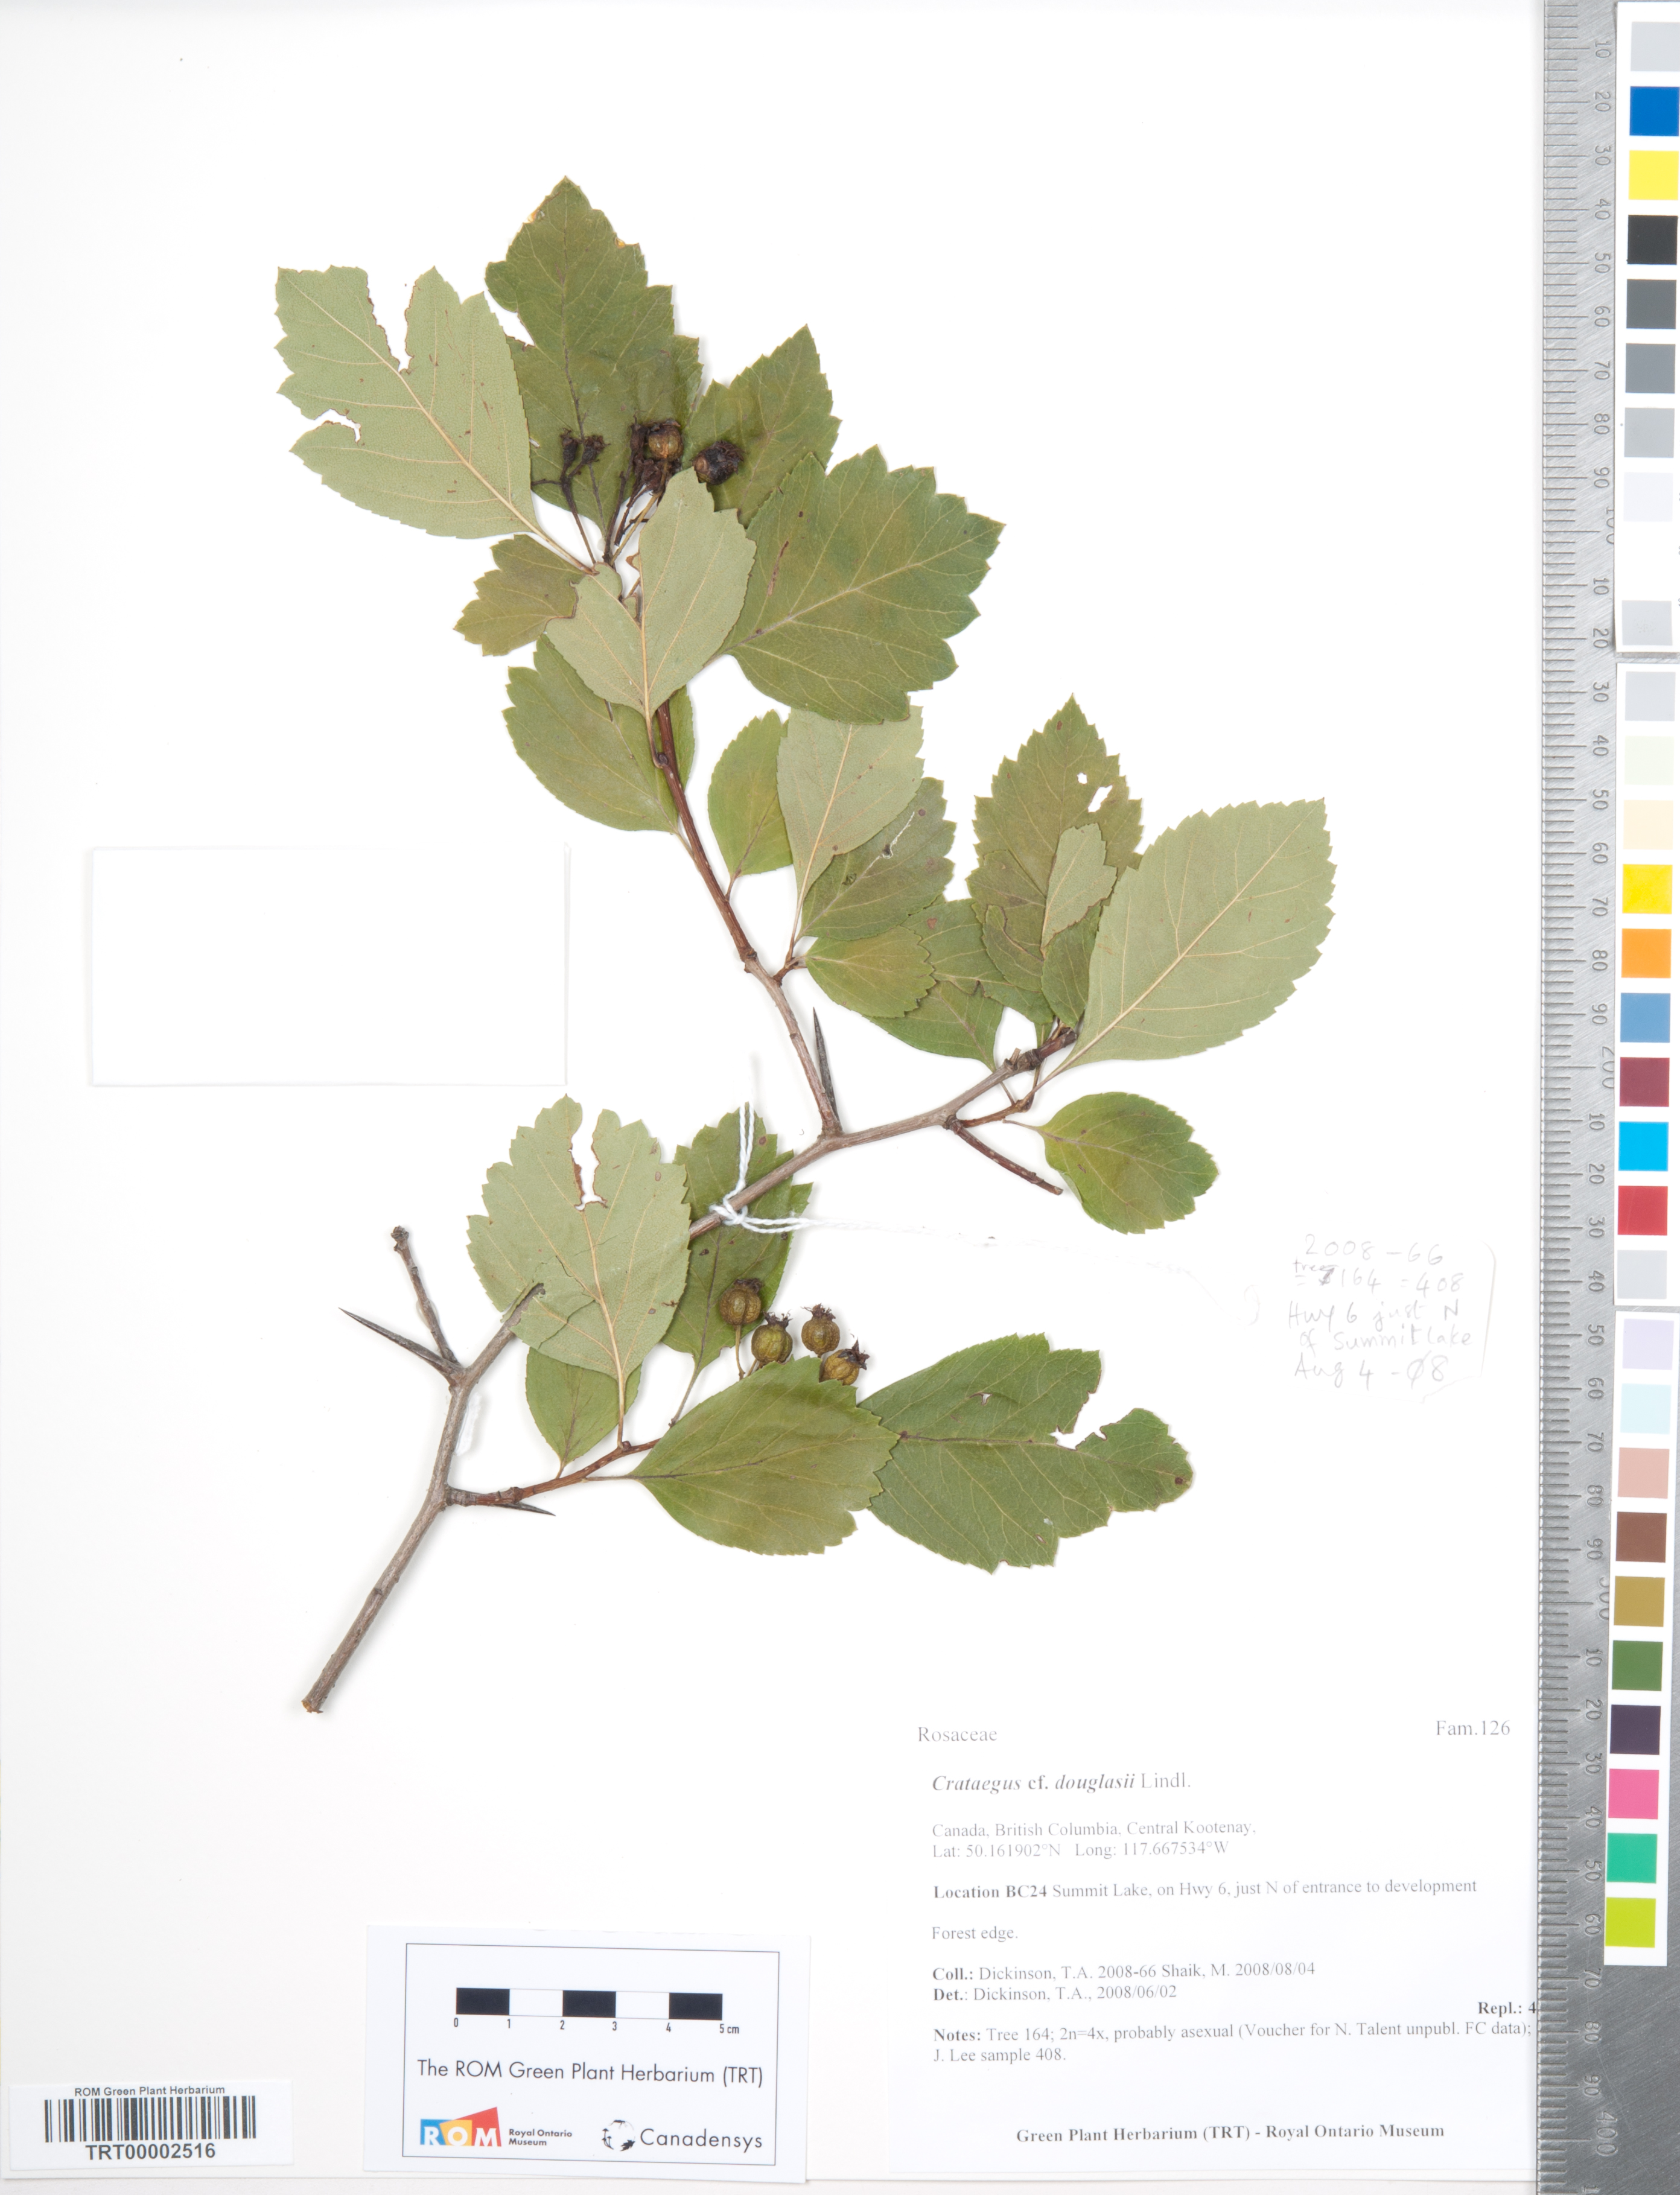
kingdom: Plantae
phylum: Tracheophyta
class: Magnoliopsida
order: Rosales
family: Rosaceae
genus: Crataegus
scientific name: Crataegus douglasii
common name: Black hawthorn
